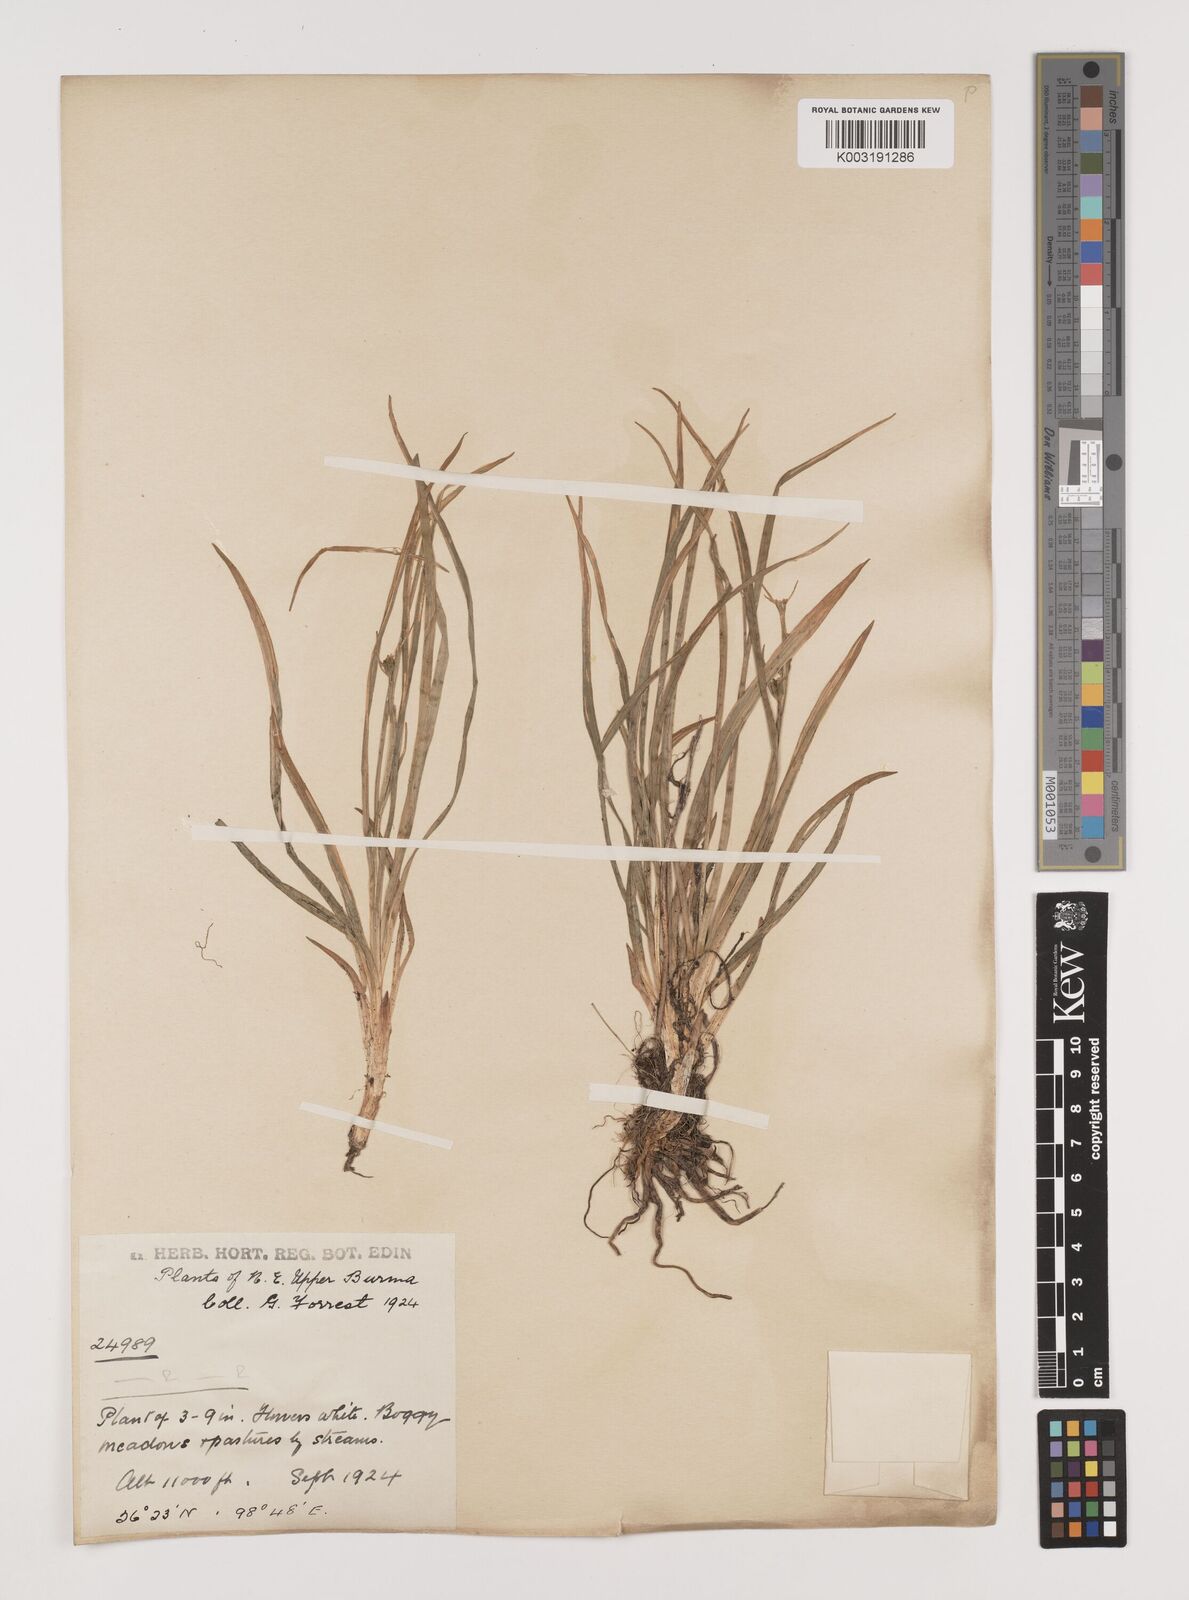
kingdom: Plantae
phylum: Tracheophyta
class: Liliopsida
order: Alismatales
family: Tofieldiaceae
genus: Tofieldia
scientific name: Tofieldia divergens
